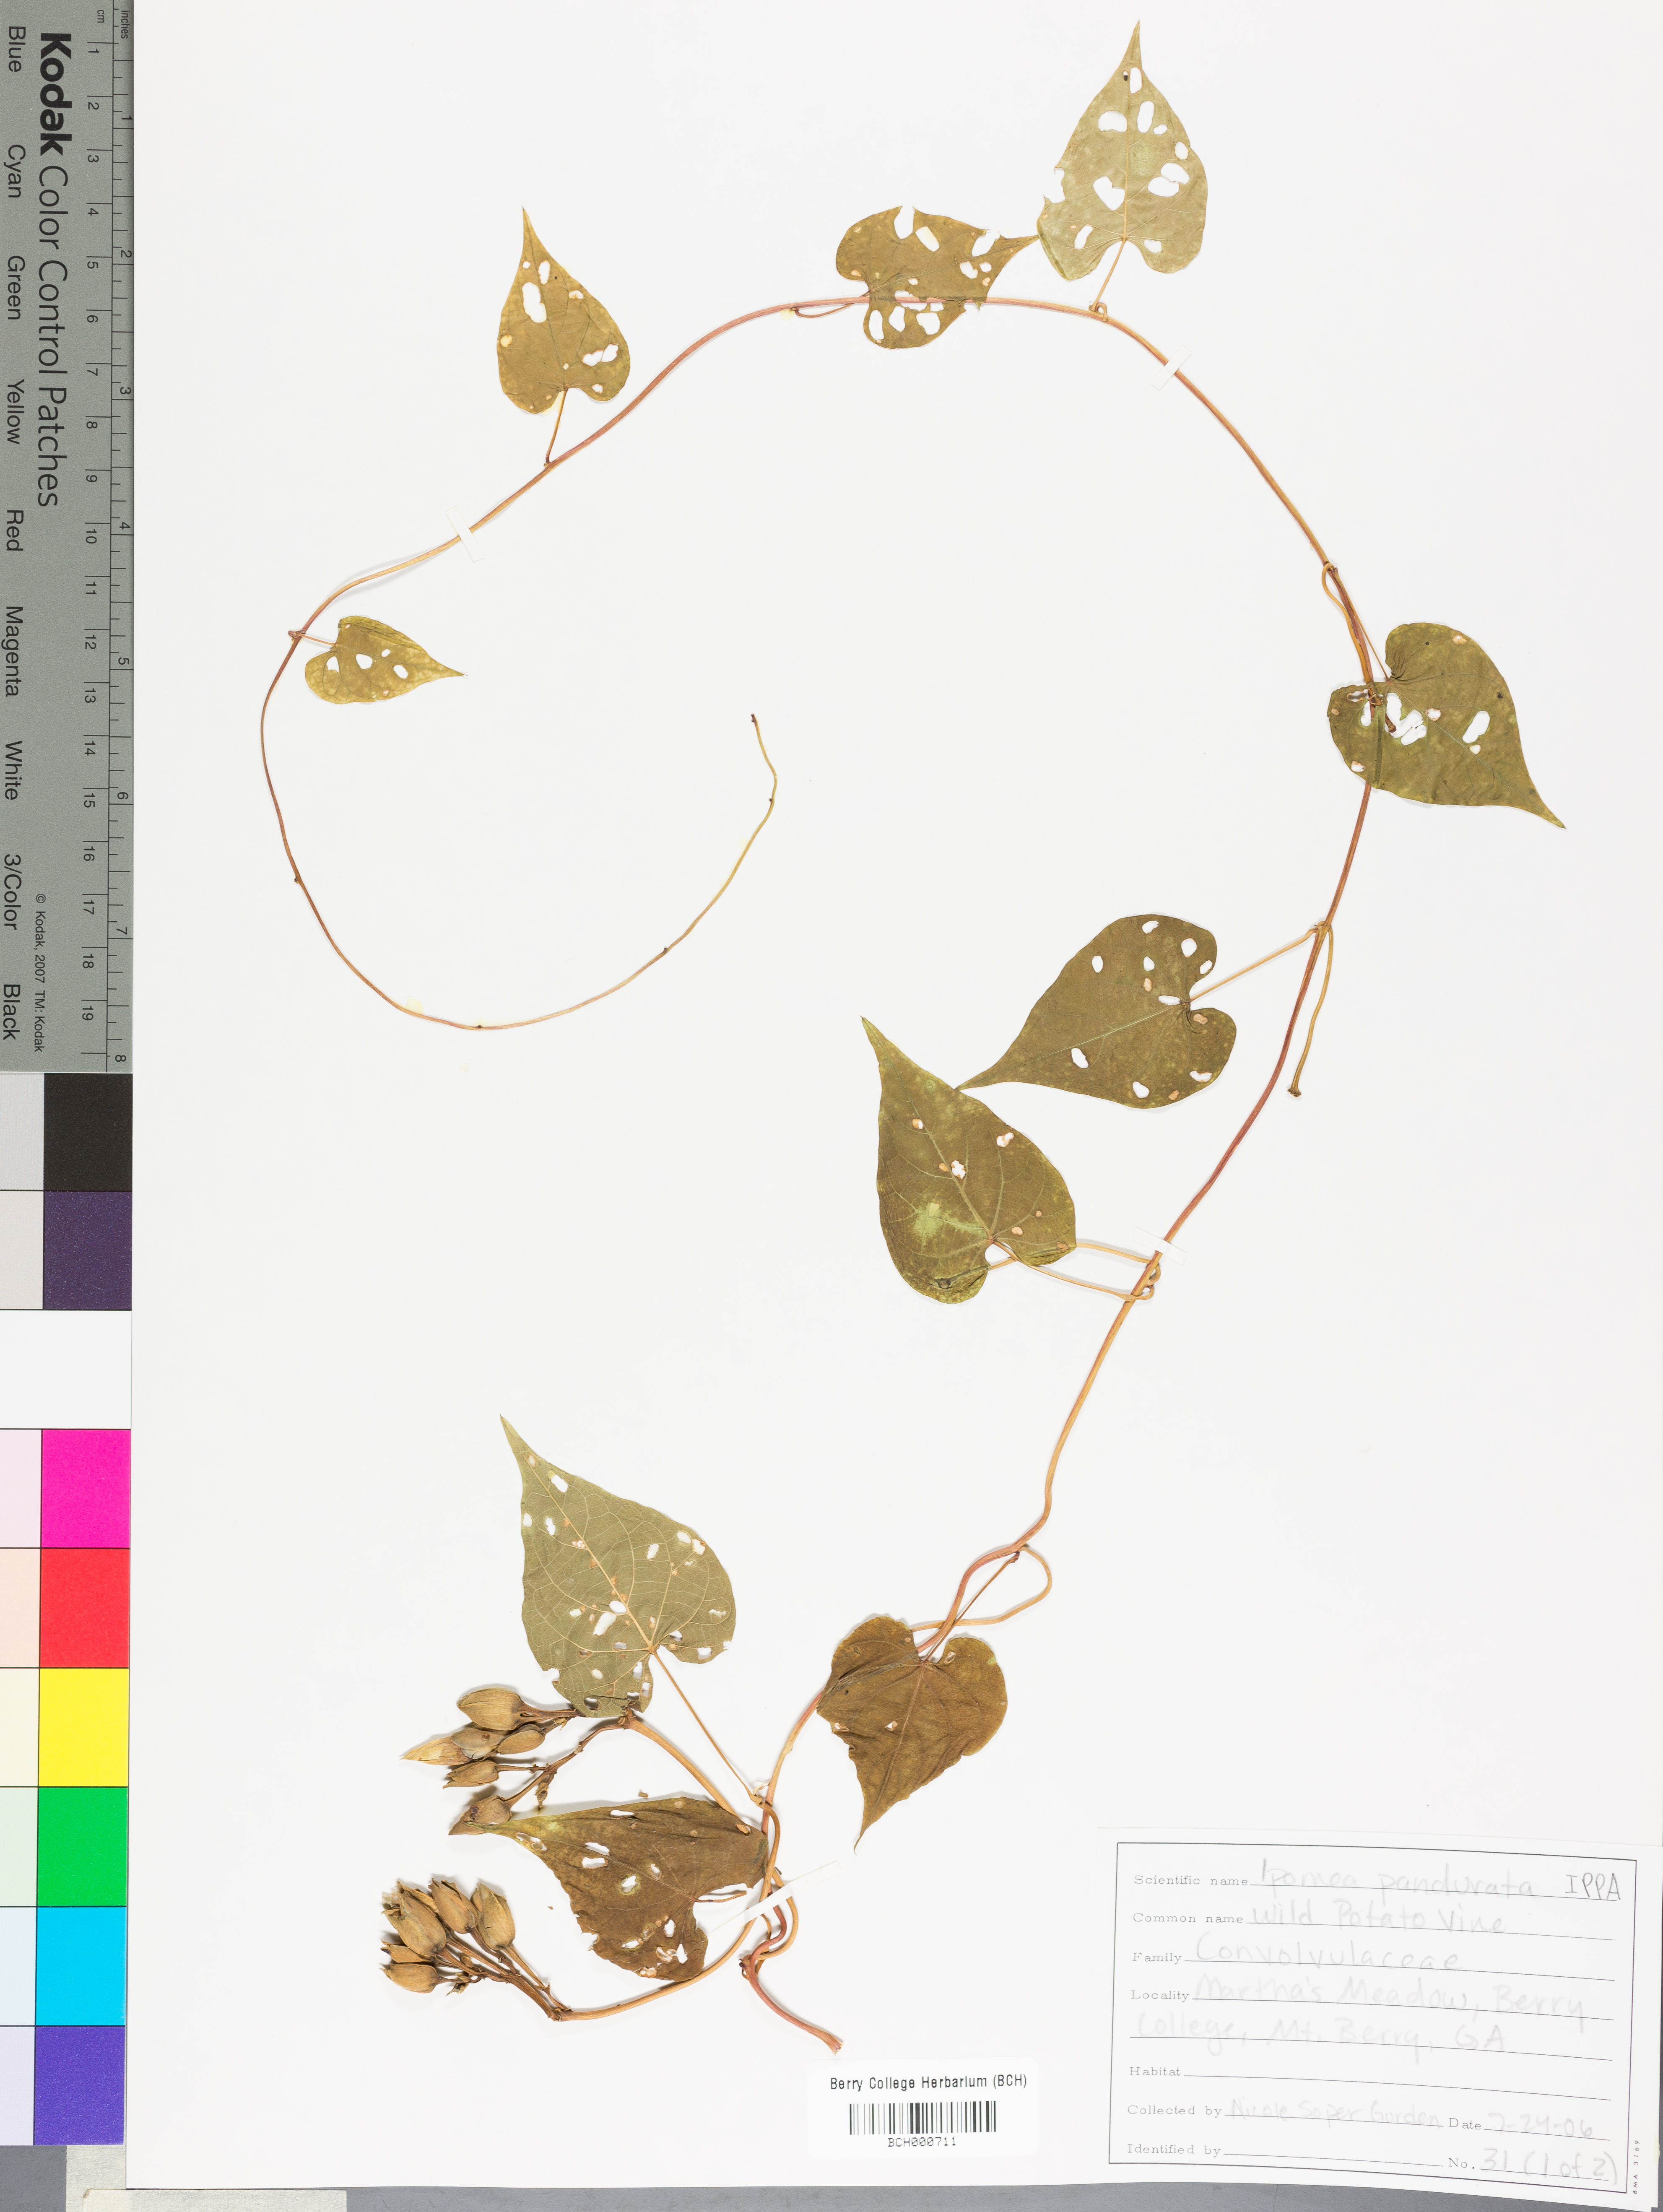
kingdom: Plantae
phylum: Tracheophyta
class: Magnoliopsida
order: Solanales
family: Convolvulaceae
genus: Ipomoea
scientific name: Ipomoea pandurata
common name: Man-of-the-earth
